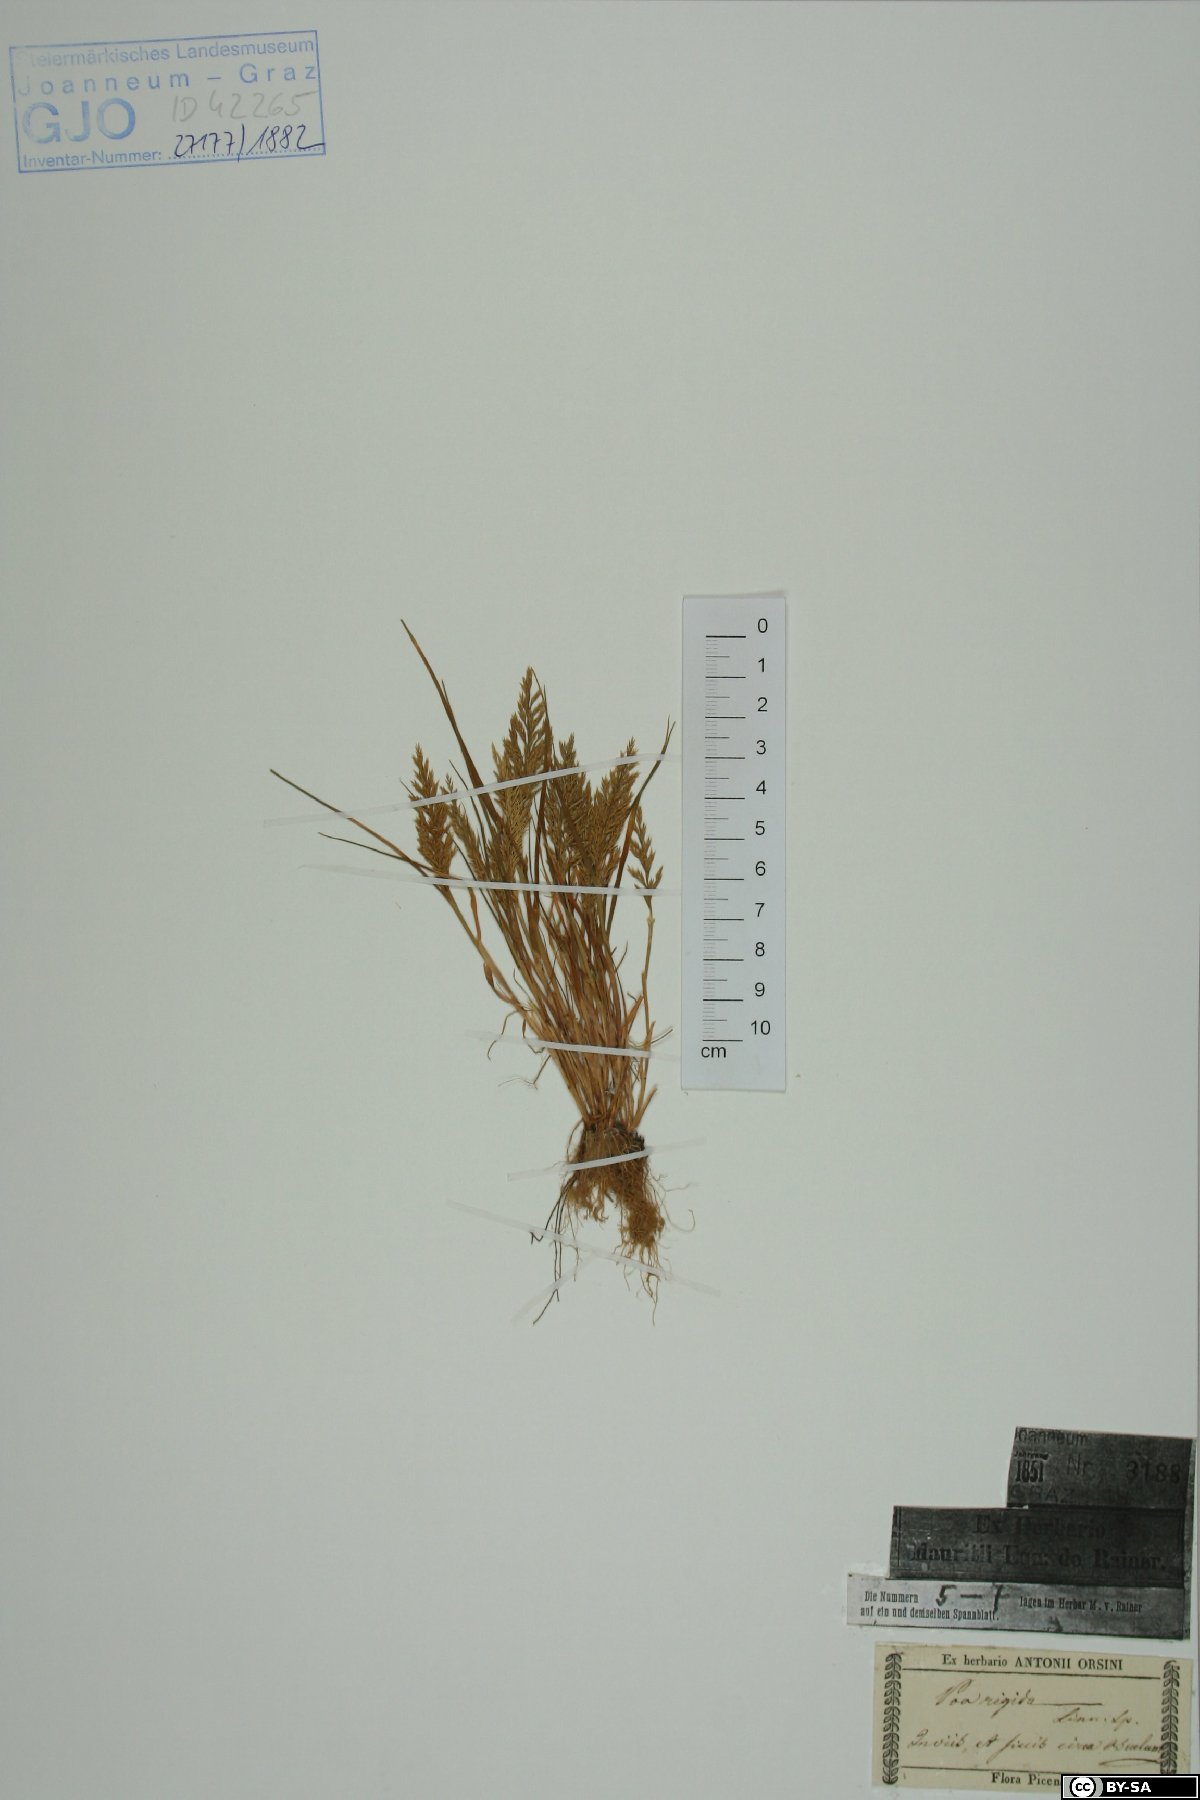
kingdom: Plantae
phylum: Tracheophyta
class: Liliopsida
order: Poales
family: Poaceae
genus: Catapodium
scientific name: Catapodium rigidum
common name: Fern-grass
